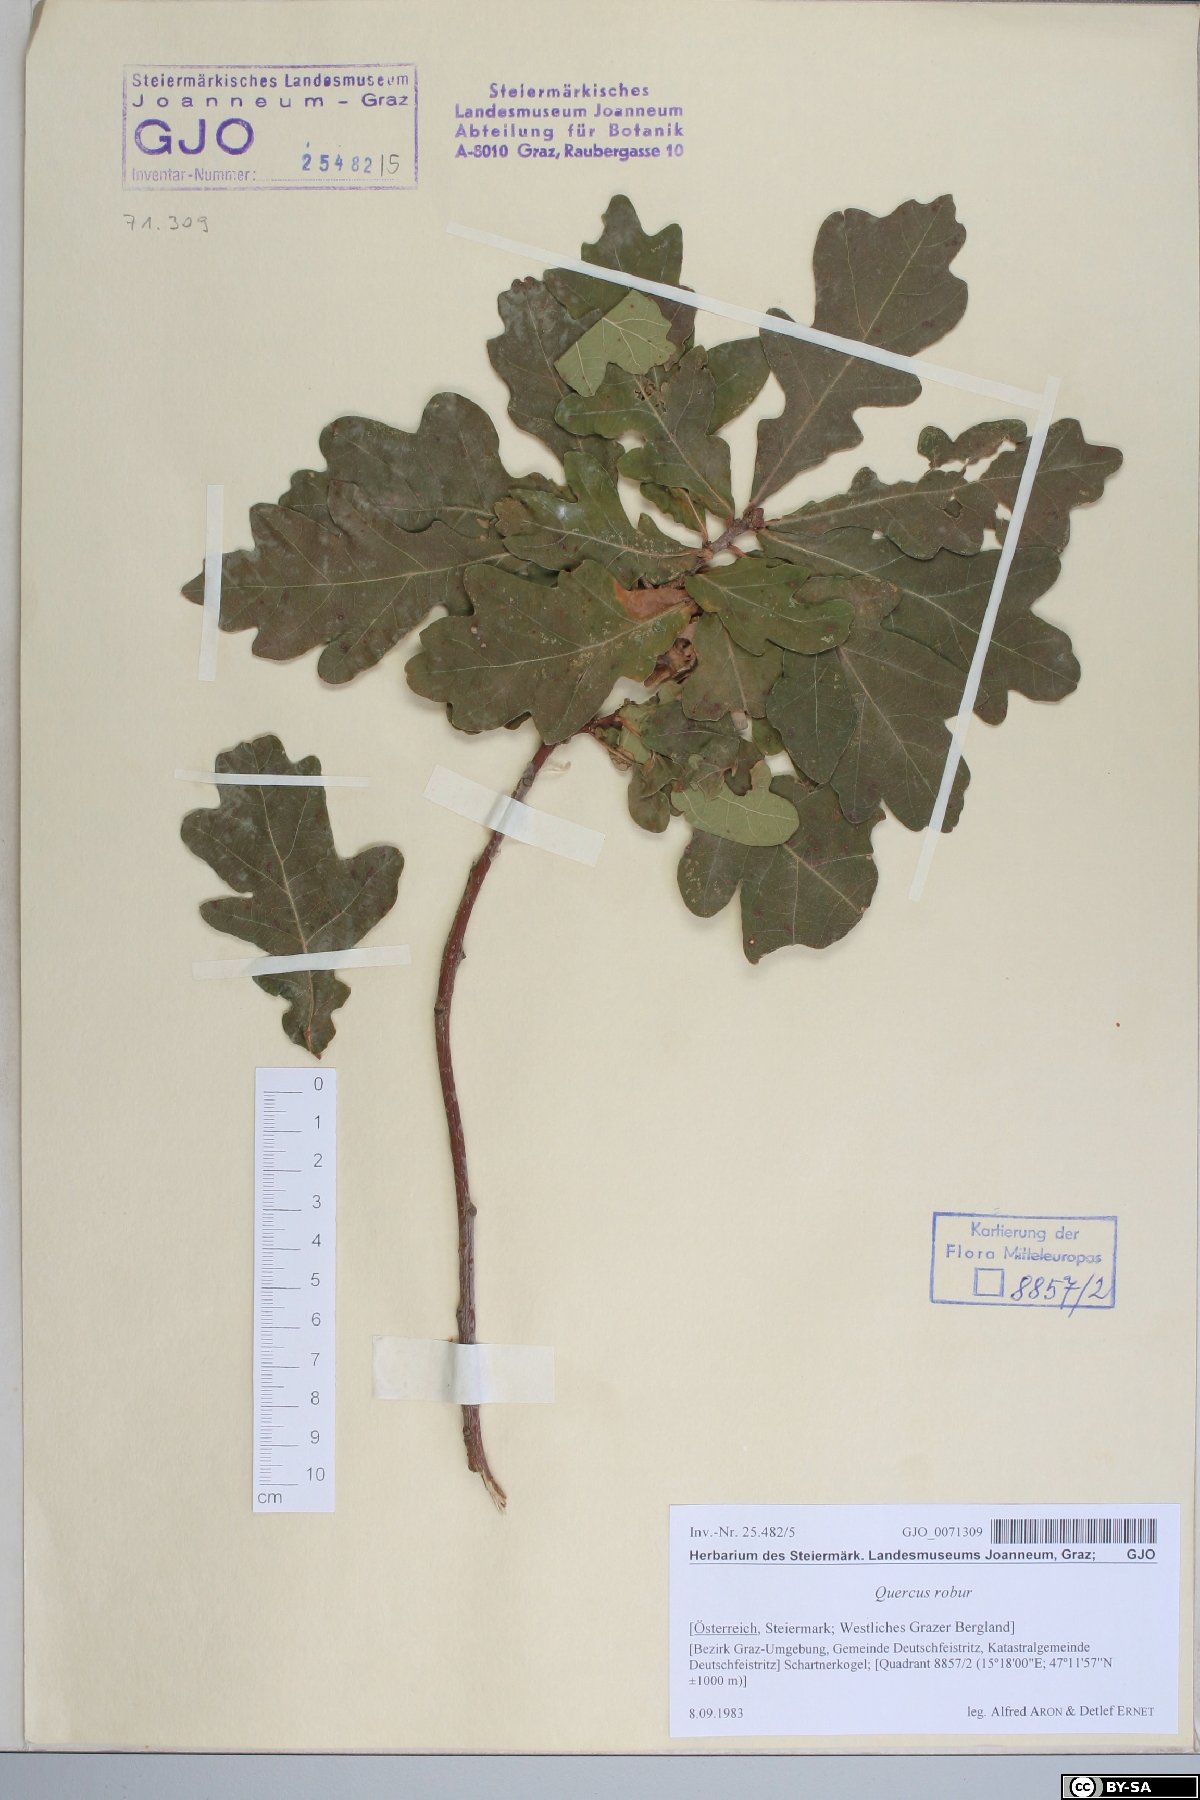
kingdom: Plantae
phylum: Tracheophyta
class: Magnoliopsida
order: Fagales
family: Fagaceae
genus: Quercus
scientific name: Quercus robur
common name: Pedunculate oak
